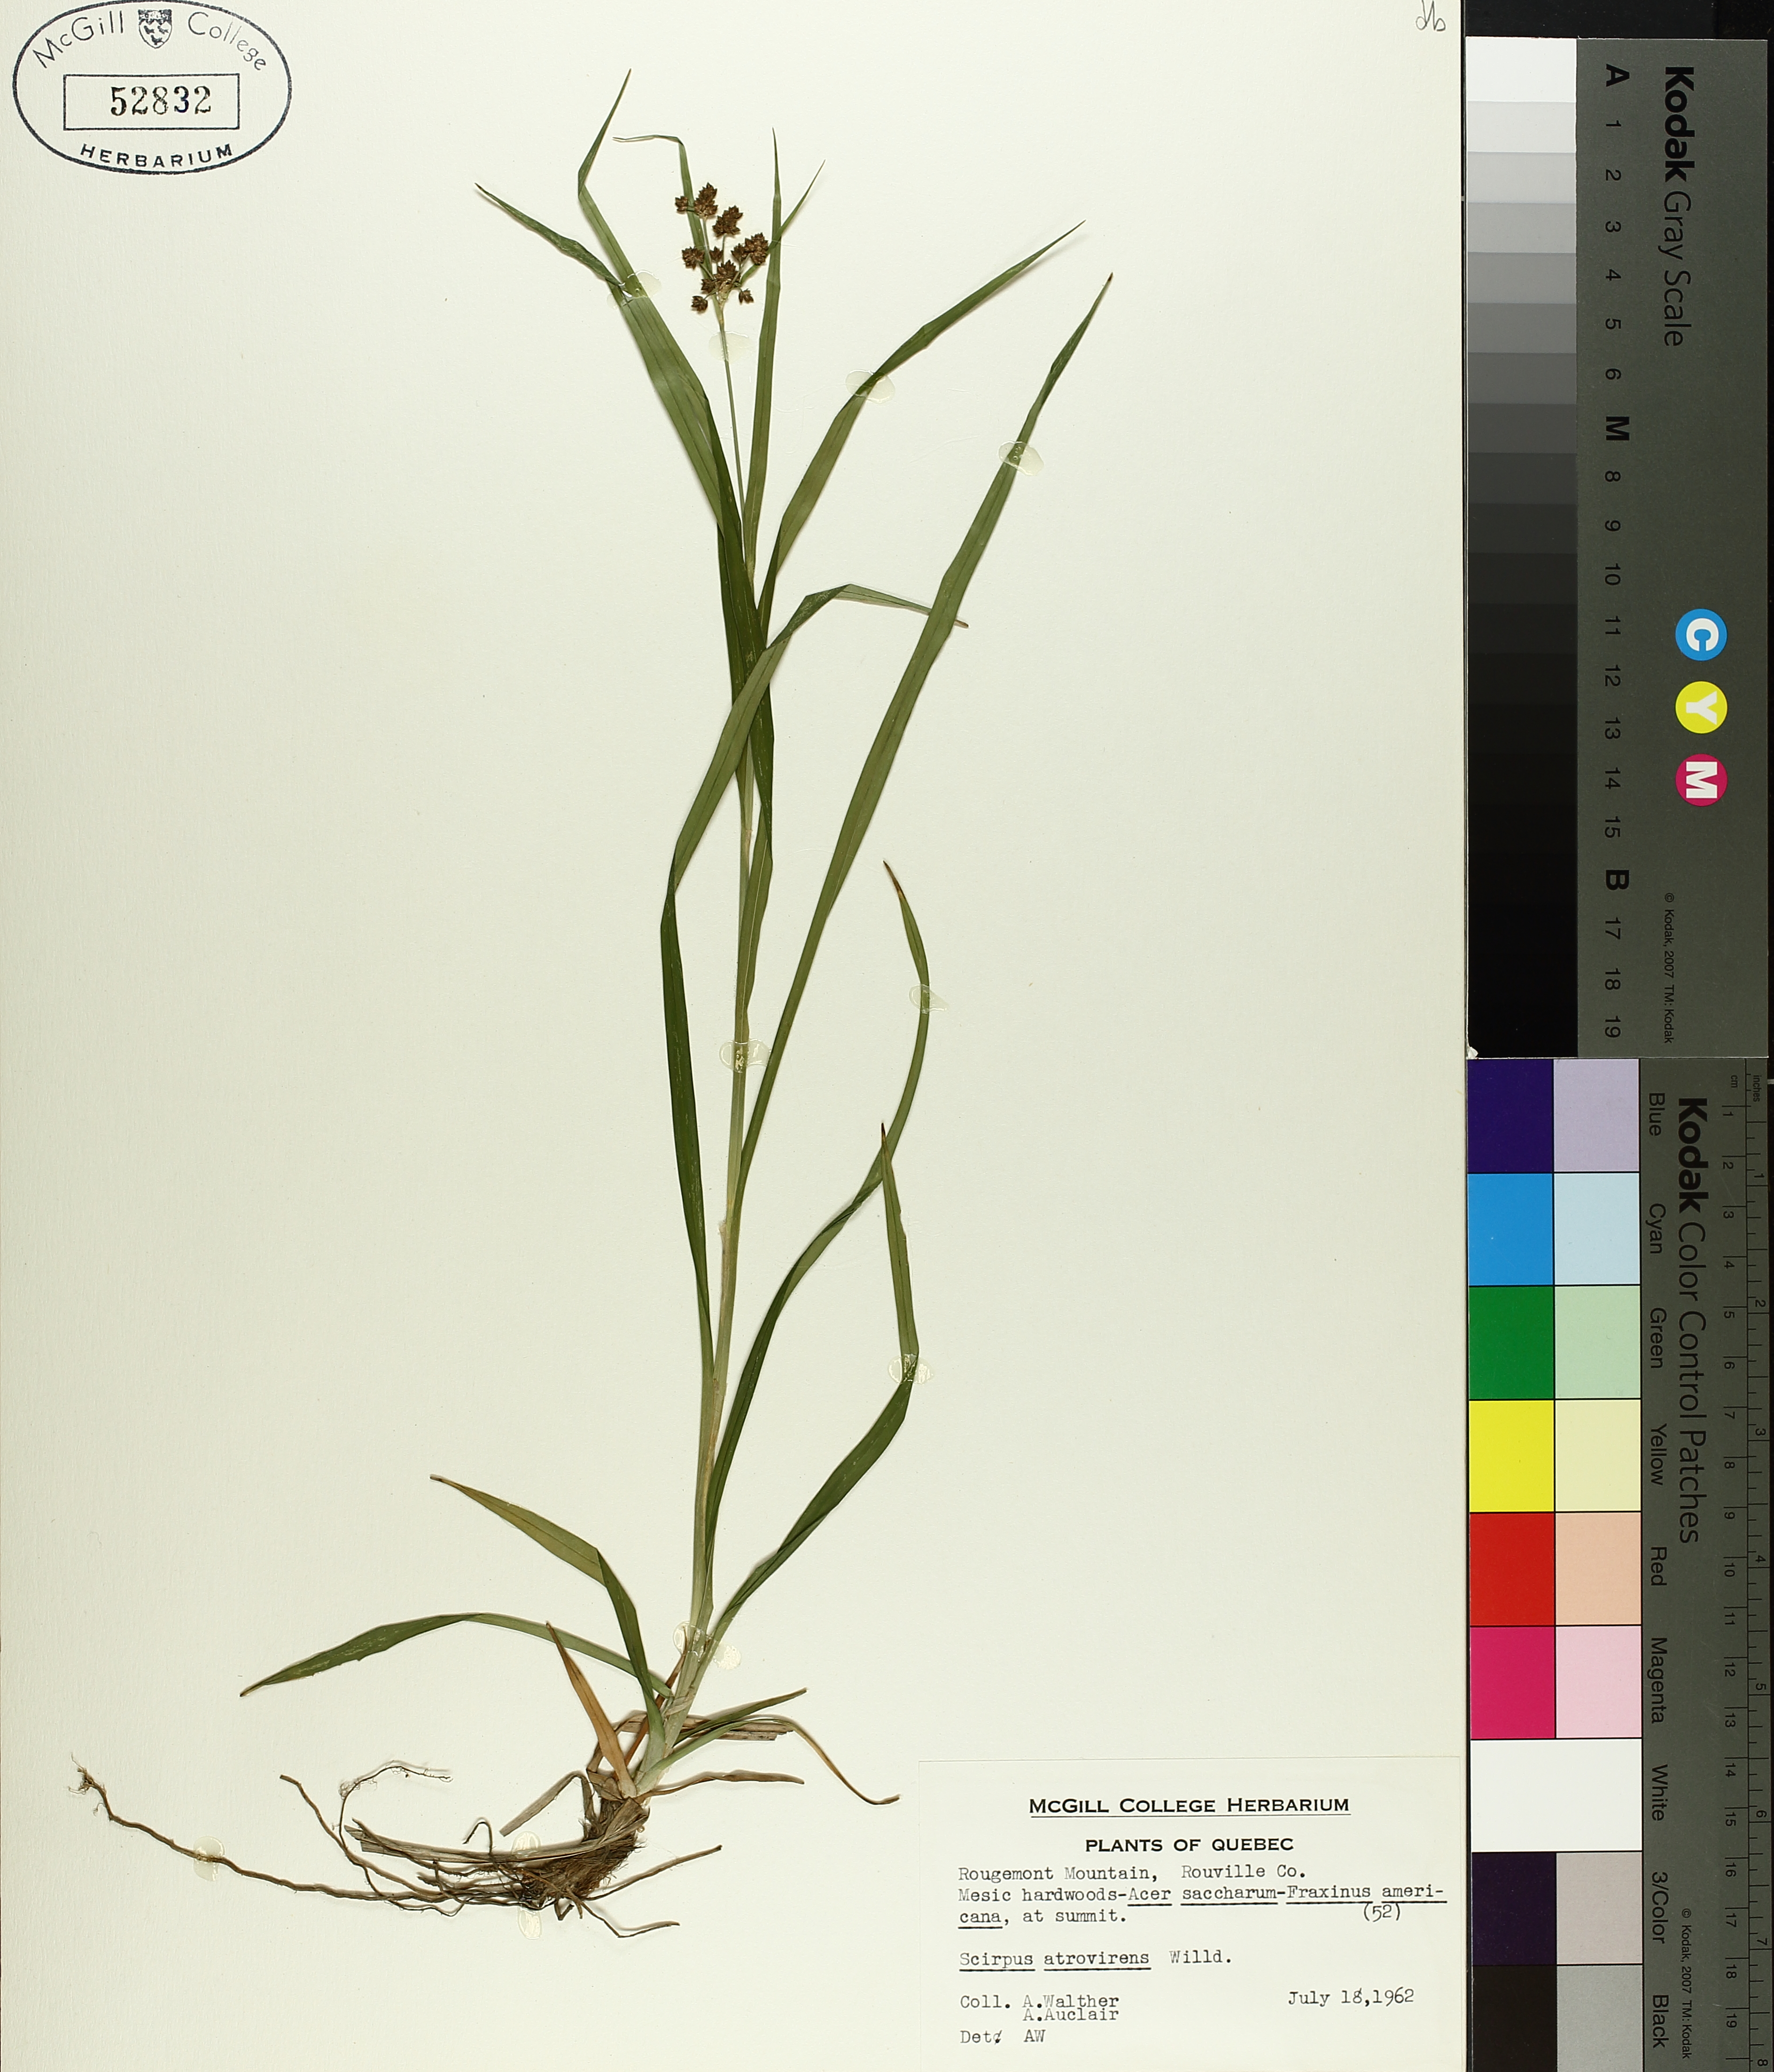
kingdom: Plantae
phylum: Tracheophyta
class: Liliopsida
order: Poales
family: Cyperaceae
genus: Scirpus
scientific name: Scirpus atrovirens
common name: Black bulrush
